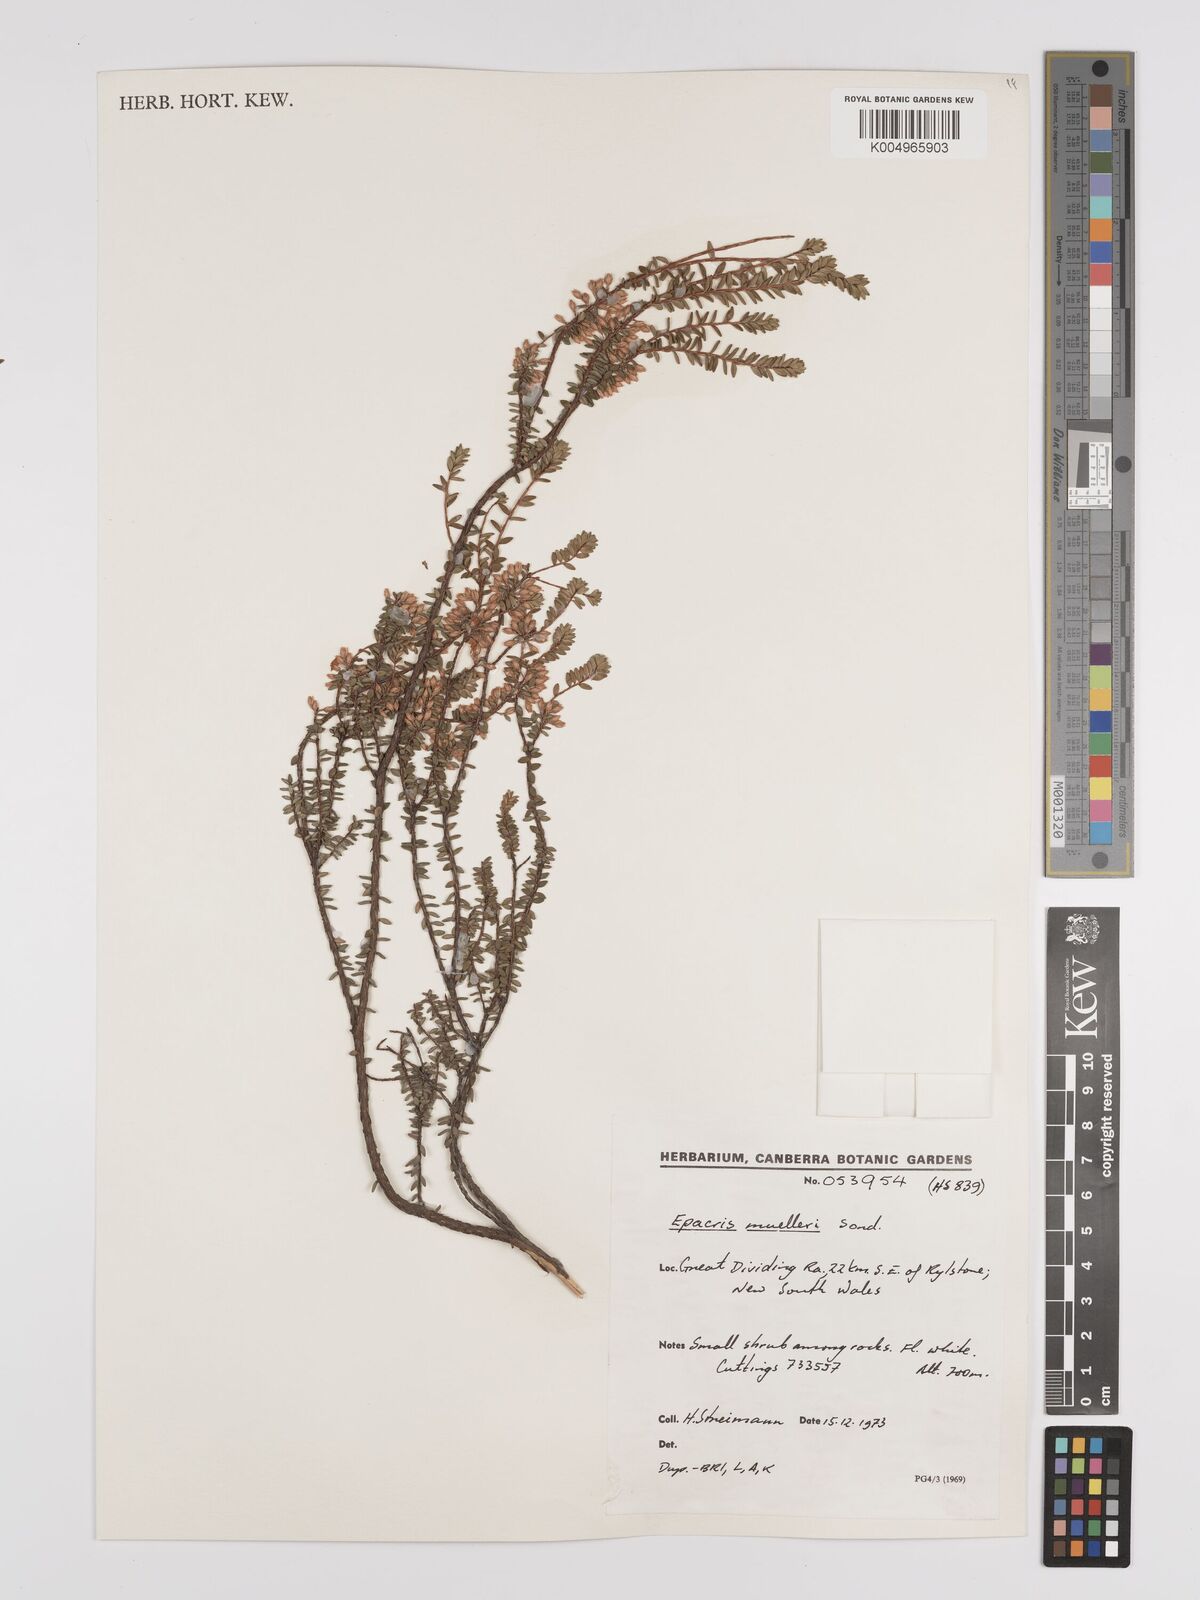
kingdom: Plantae
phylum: Tracheophyta
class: Magnoliopsida
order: Ericales
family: Ericaceae
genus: Epacris
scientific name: Epacris muelleri
